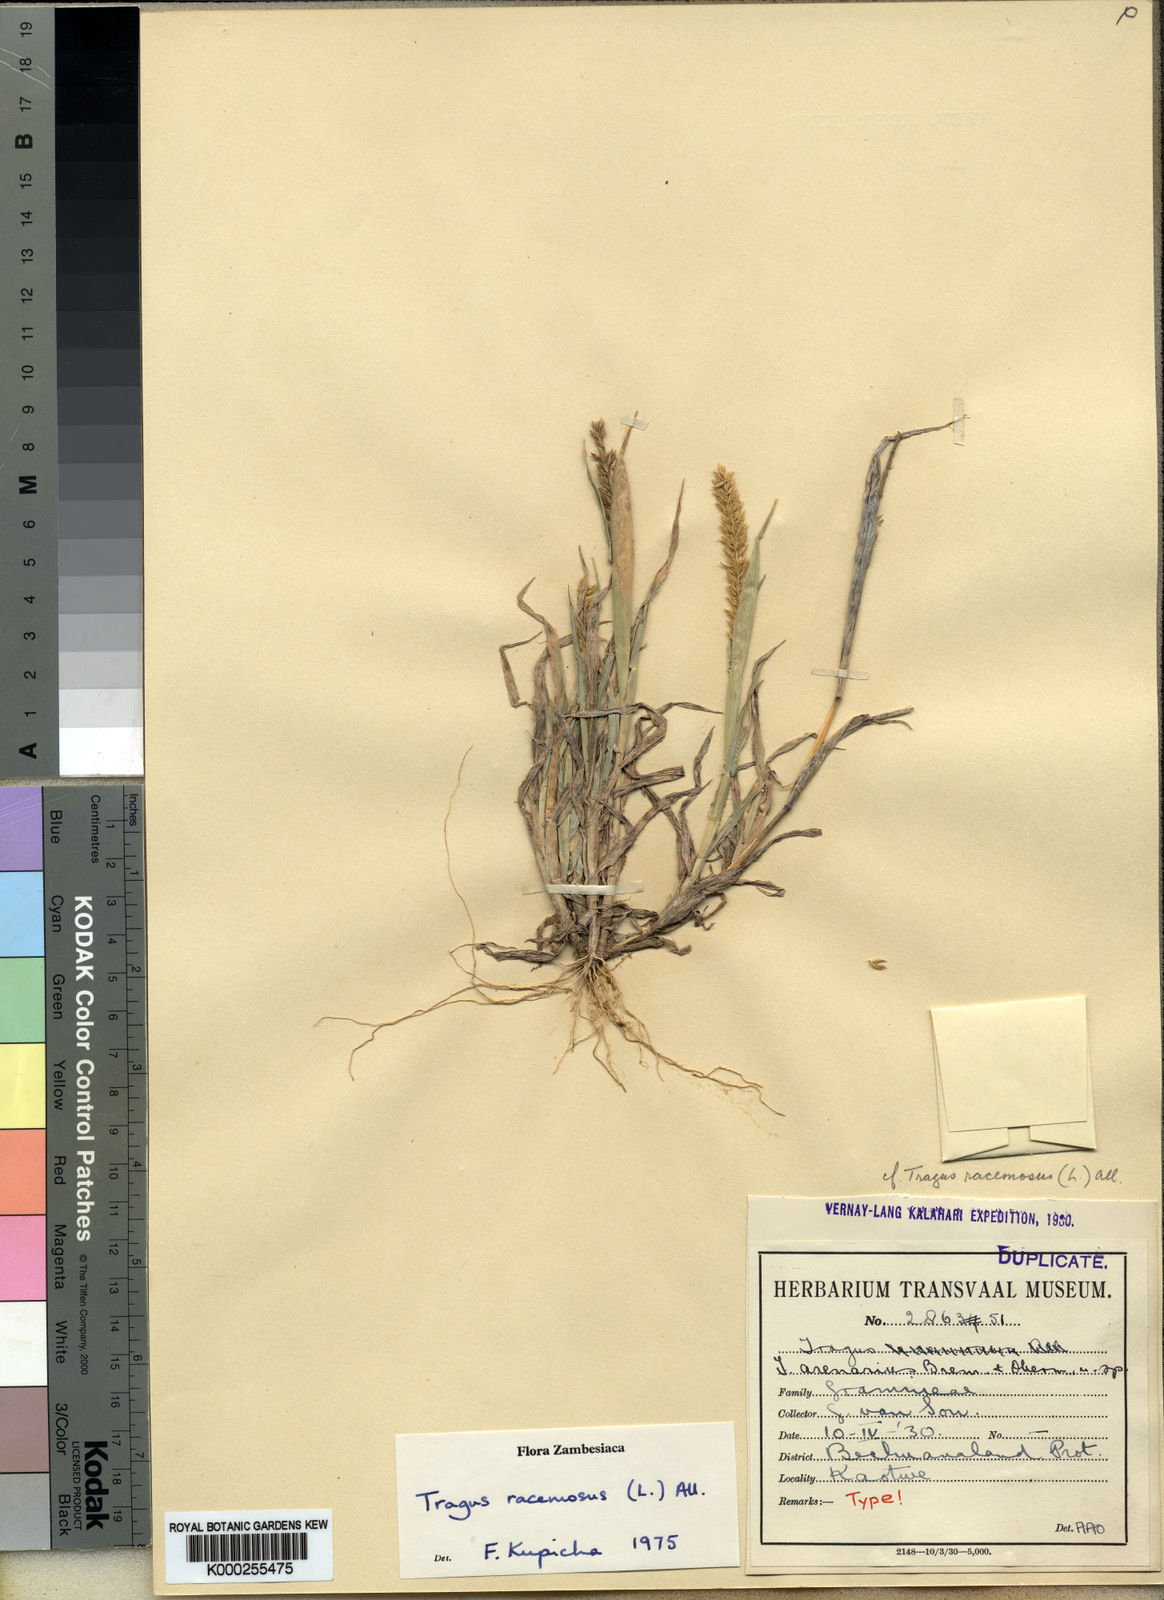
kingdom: Plantae
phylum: Tracheophyta
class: Liliopsida
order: Poales
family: Poaceae
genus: Tragus
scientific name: Tragus racemosus
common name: European bur-grass
